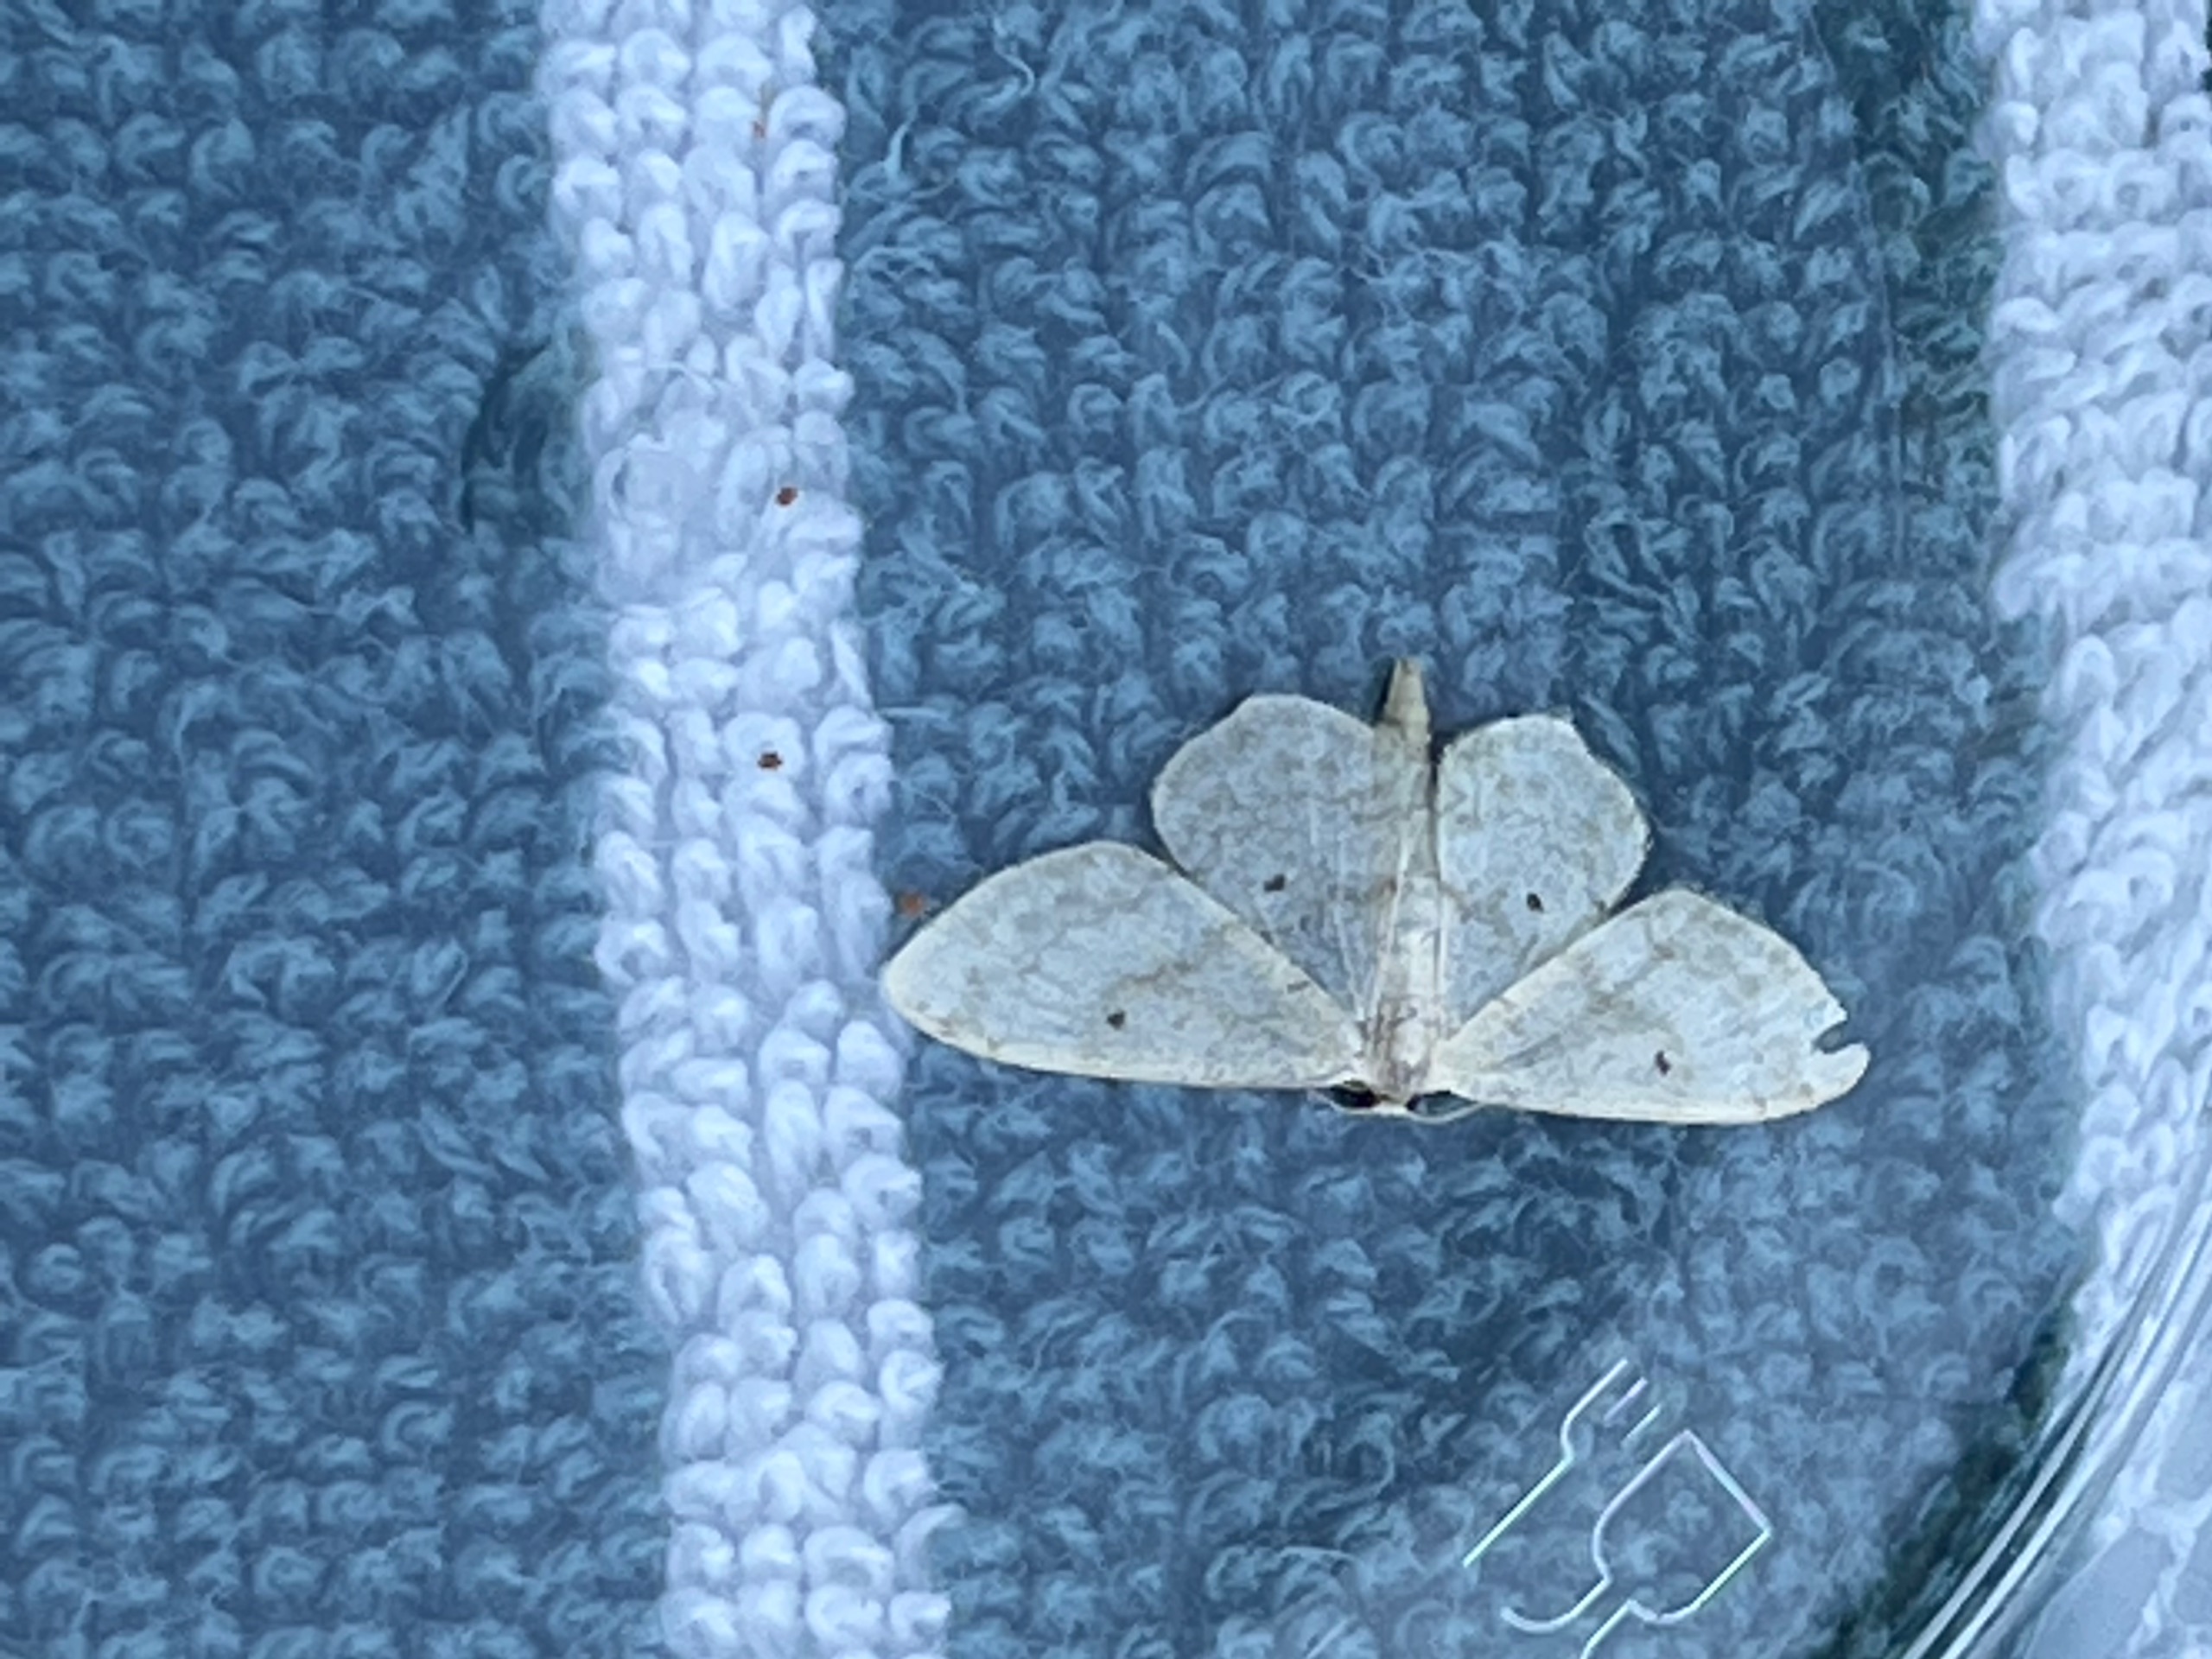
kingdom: Animalia
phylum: Arthropoda
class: Insecta
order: Lepidoptera
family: Geometridae
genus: Idaea
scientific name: Idaea biselata
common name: Skov-løvmåler
